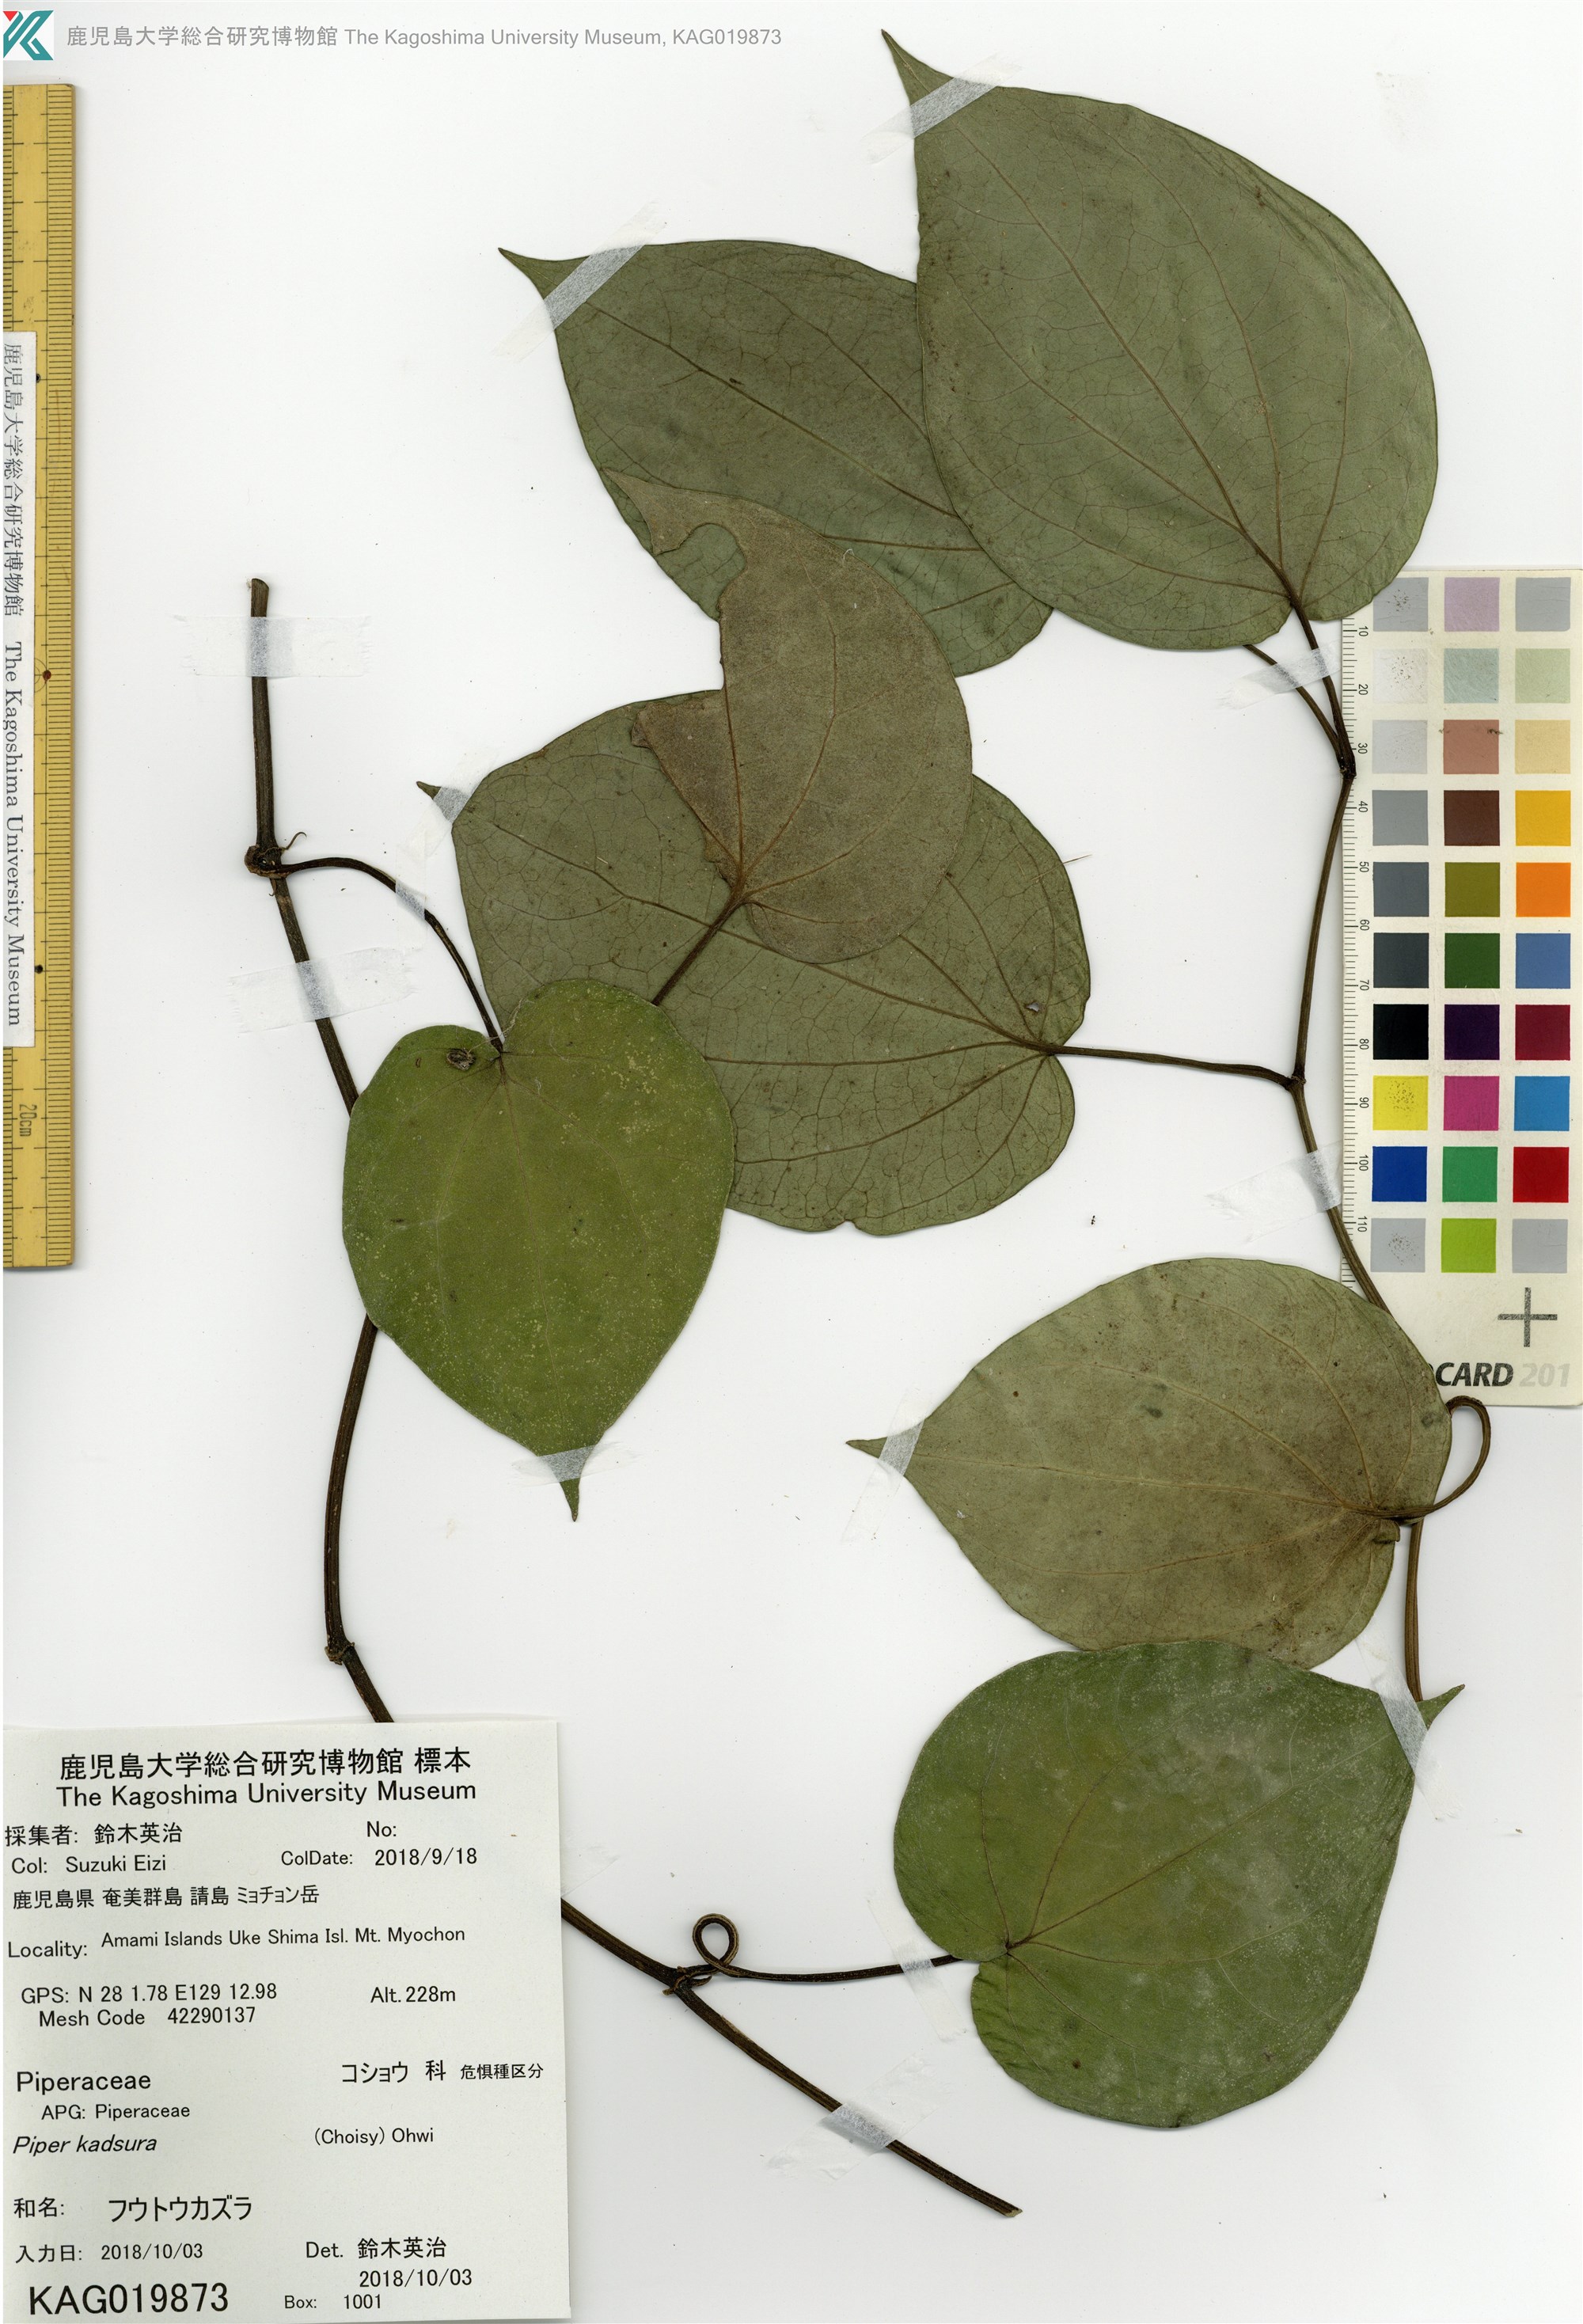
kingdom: Plantae
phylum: Tracheophyta
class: Magnoliopsida
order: Piperales
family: Piperaceae
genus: Piper
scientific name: Piper kadsura
